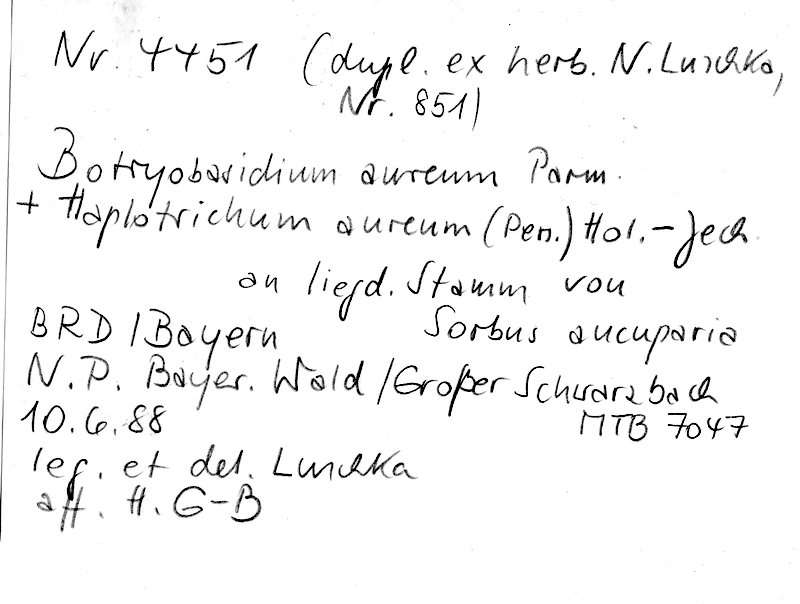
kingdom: Plantae
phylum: Tracheophyta
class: Magnoliopsida
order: Rosales
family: Rosaceae
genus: Sorbus
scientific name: Sorbus aucuparia
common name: Rowan
